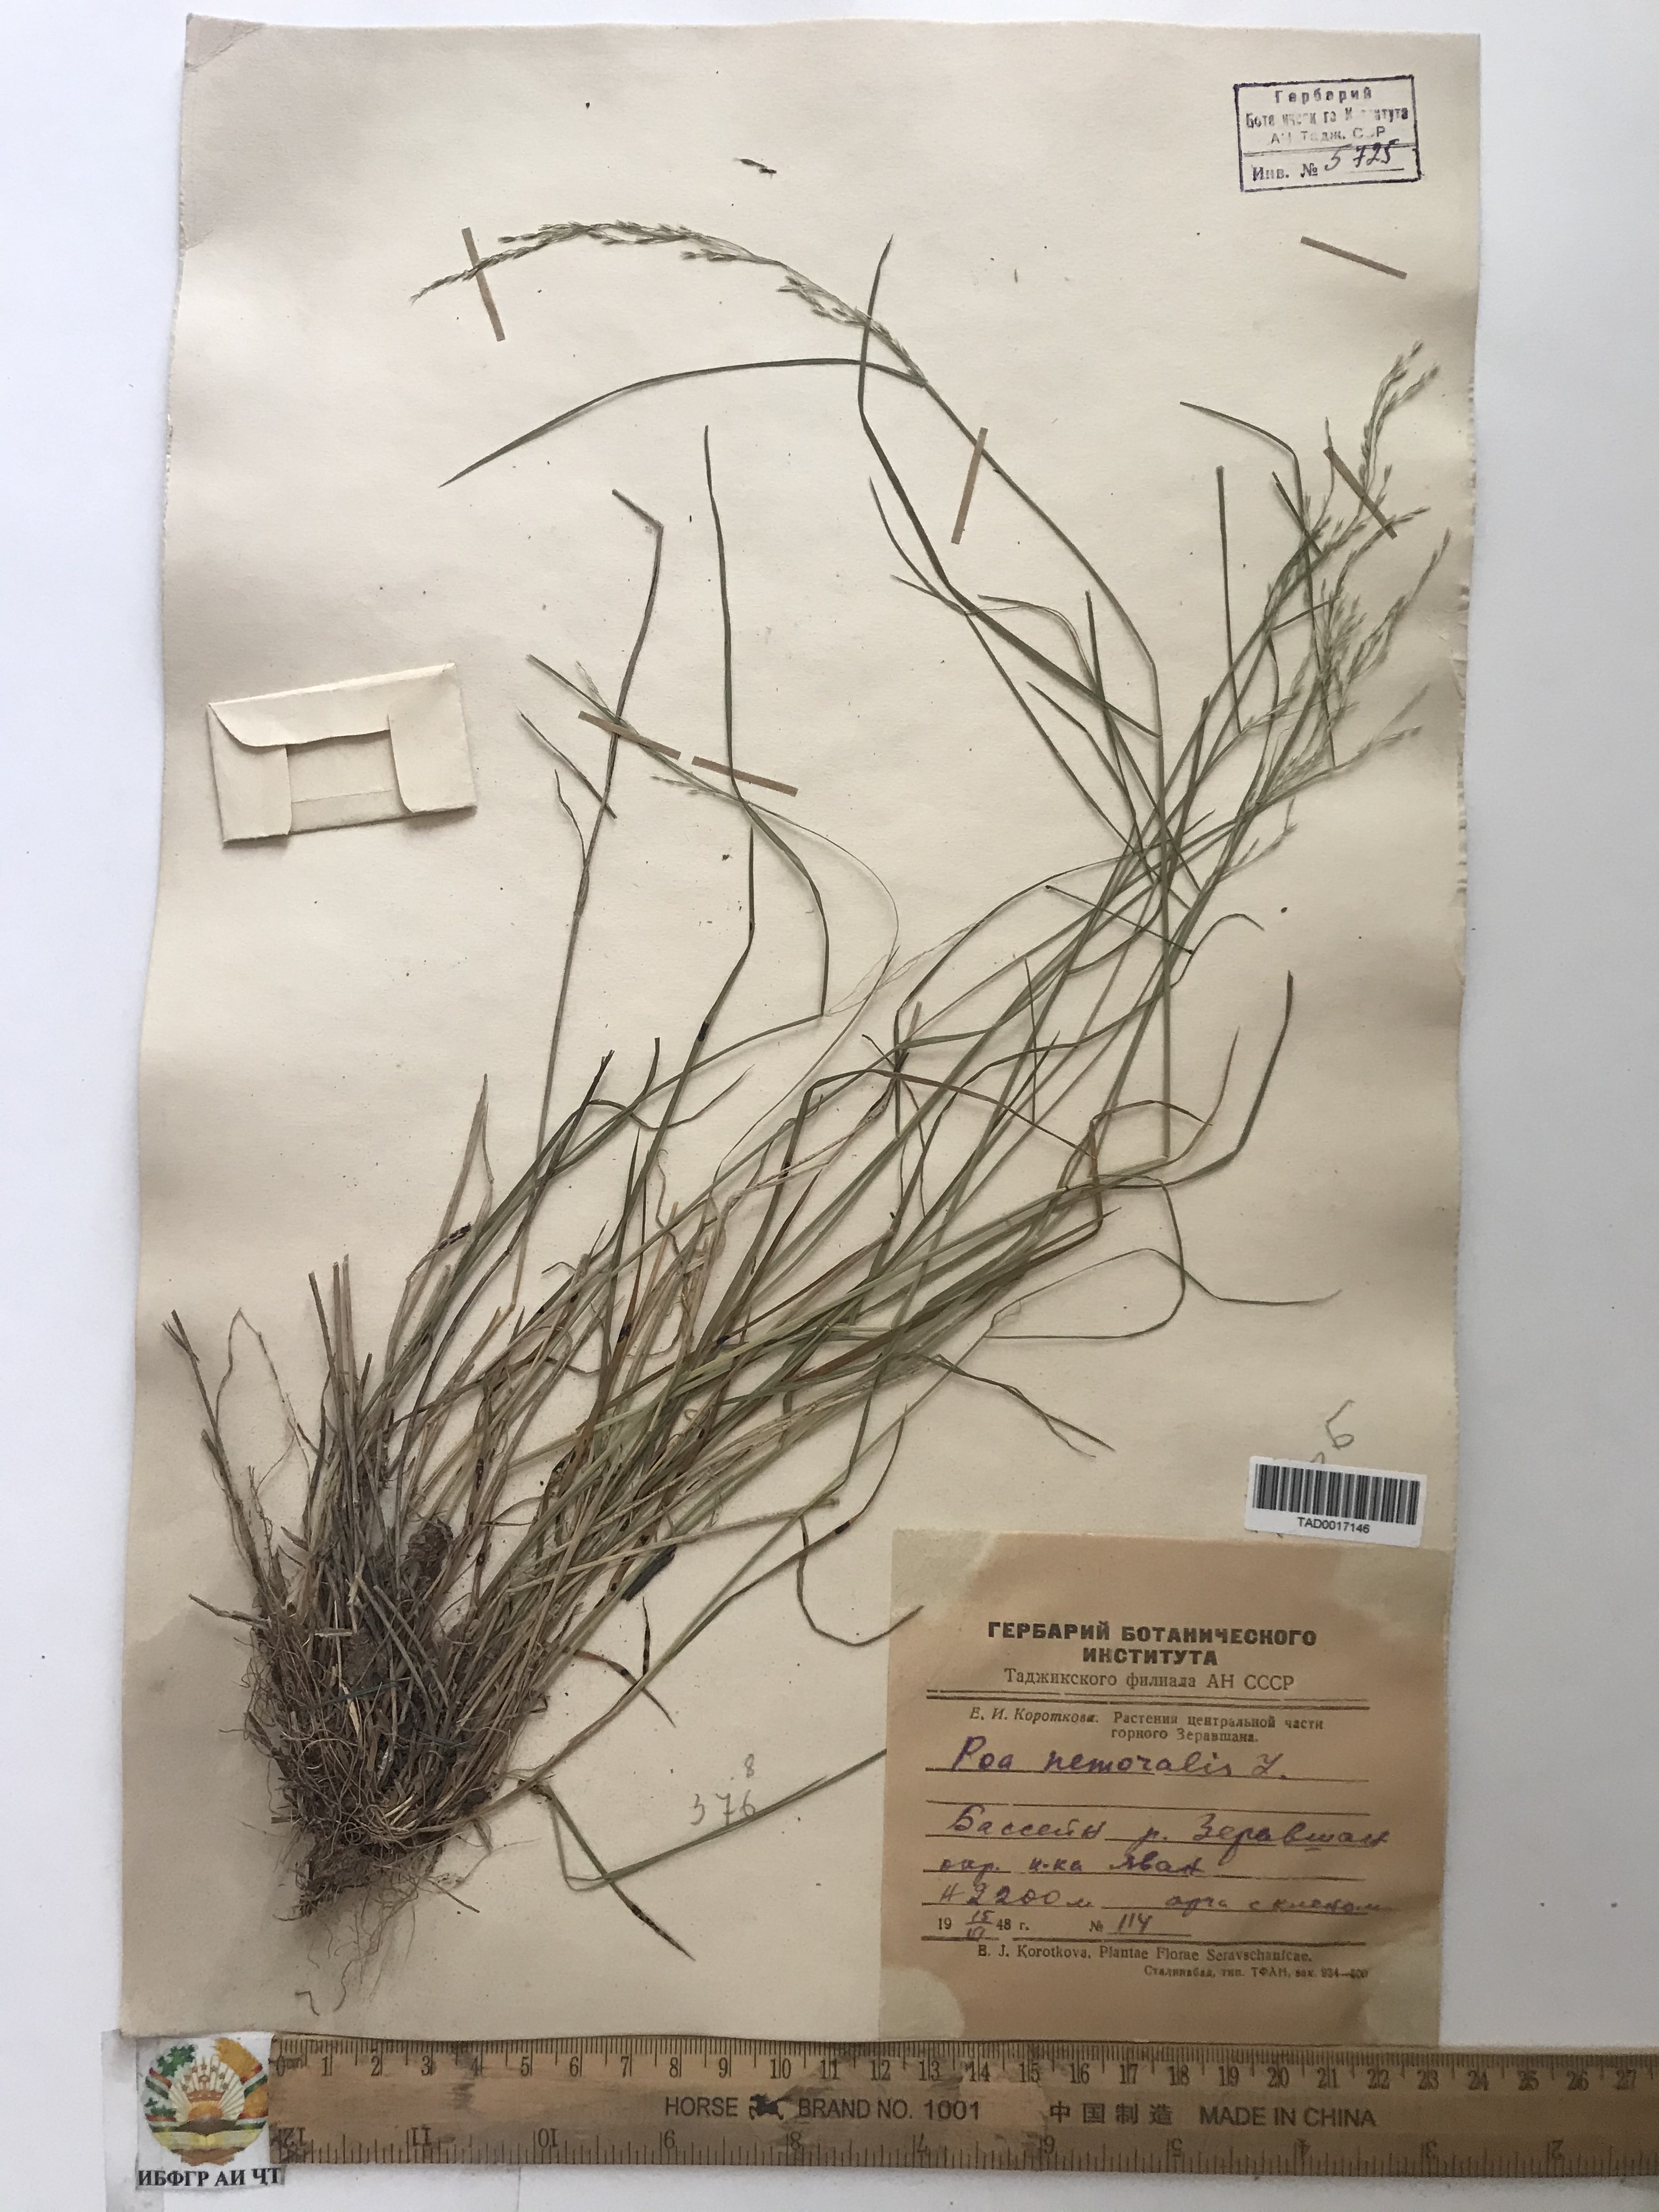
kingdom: Plantae
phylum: Tracheophyta
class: Liliopsida
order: Poales
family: Poaceae
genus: Poa
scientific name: Poa nemoralis
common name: Wood bluegrass
